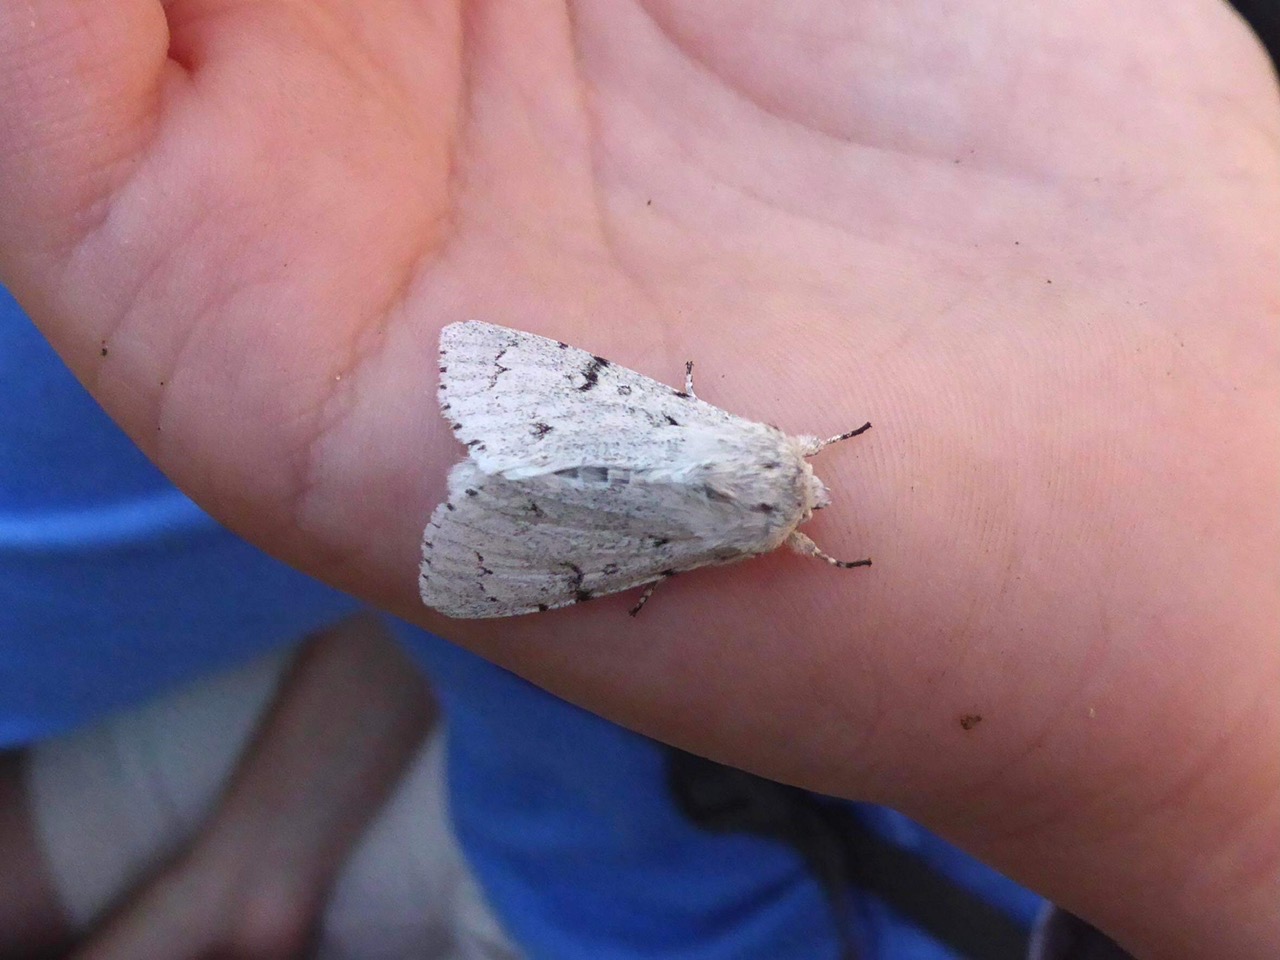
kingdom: Animalia
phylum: Arthropoda
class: Insecta
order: Lepidoptera
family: Noctuidae
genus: Acronicta
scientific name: Acronicta leporina
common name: Snehare
